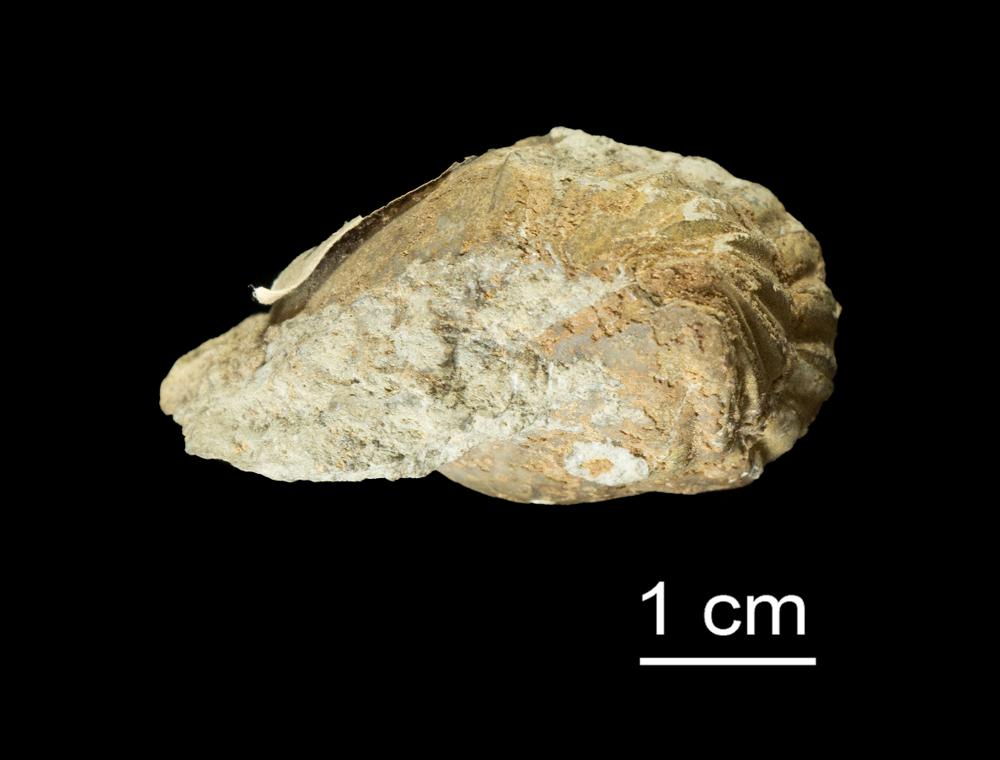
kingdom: Animalia
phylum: Arthropoda
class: Trilobita
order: Asaphida
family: Asaphidae
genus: Asaphus
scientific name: Asaphus raniceps
